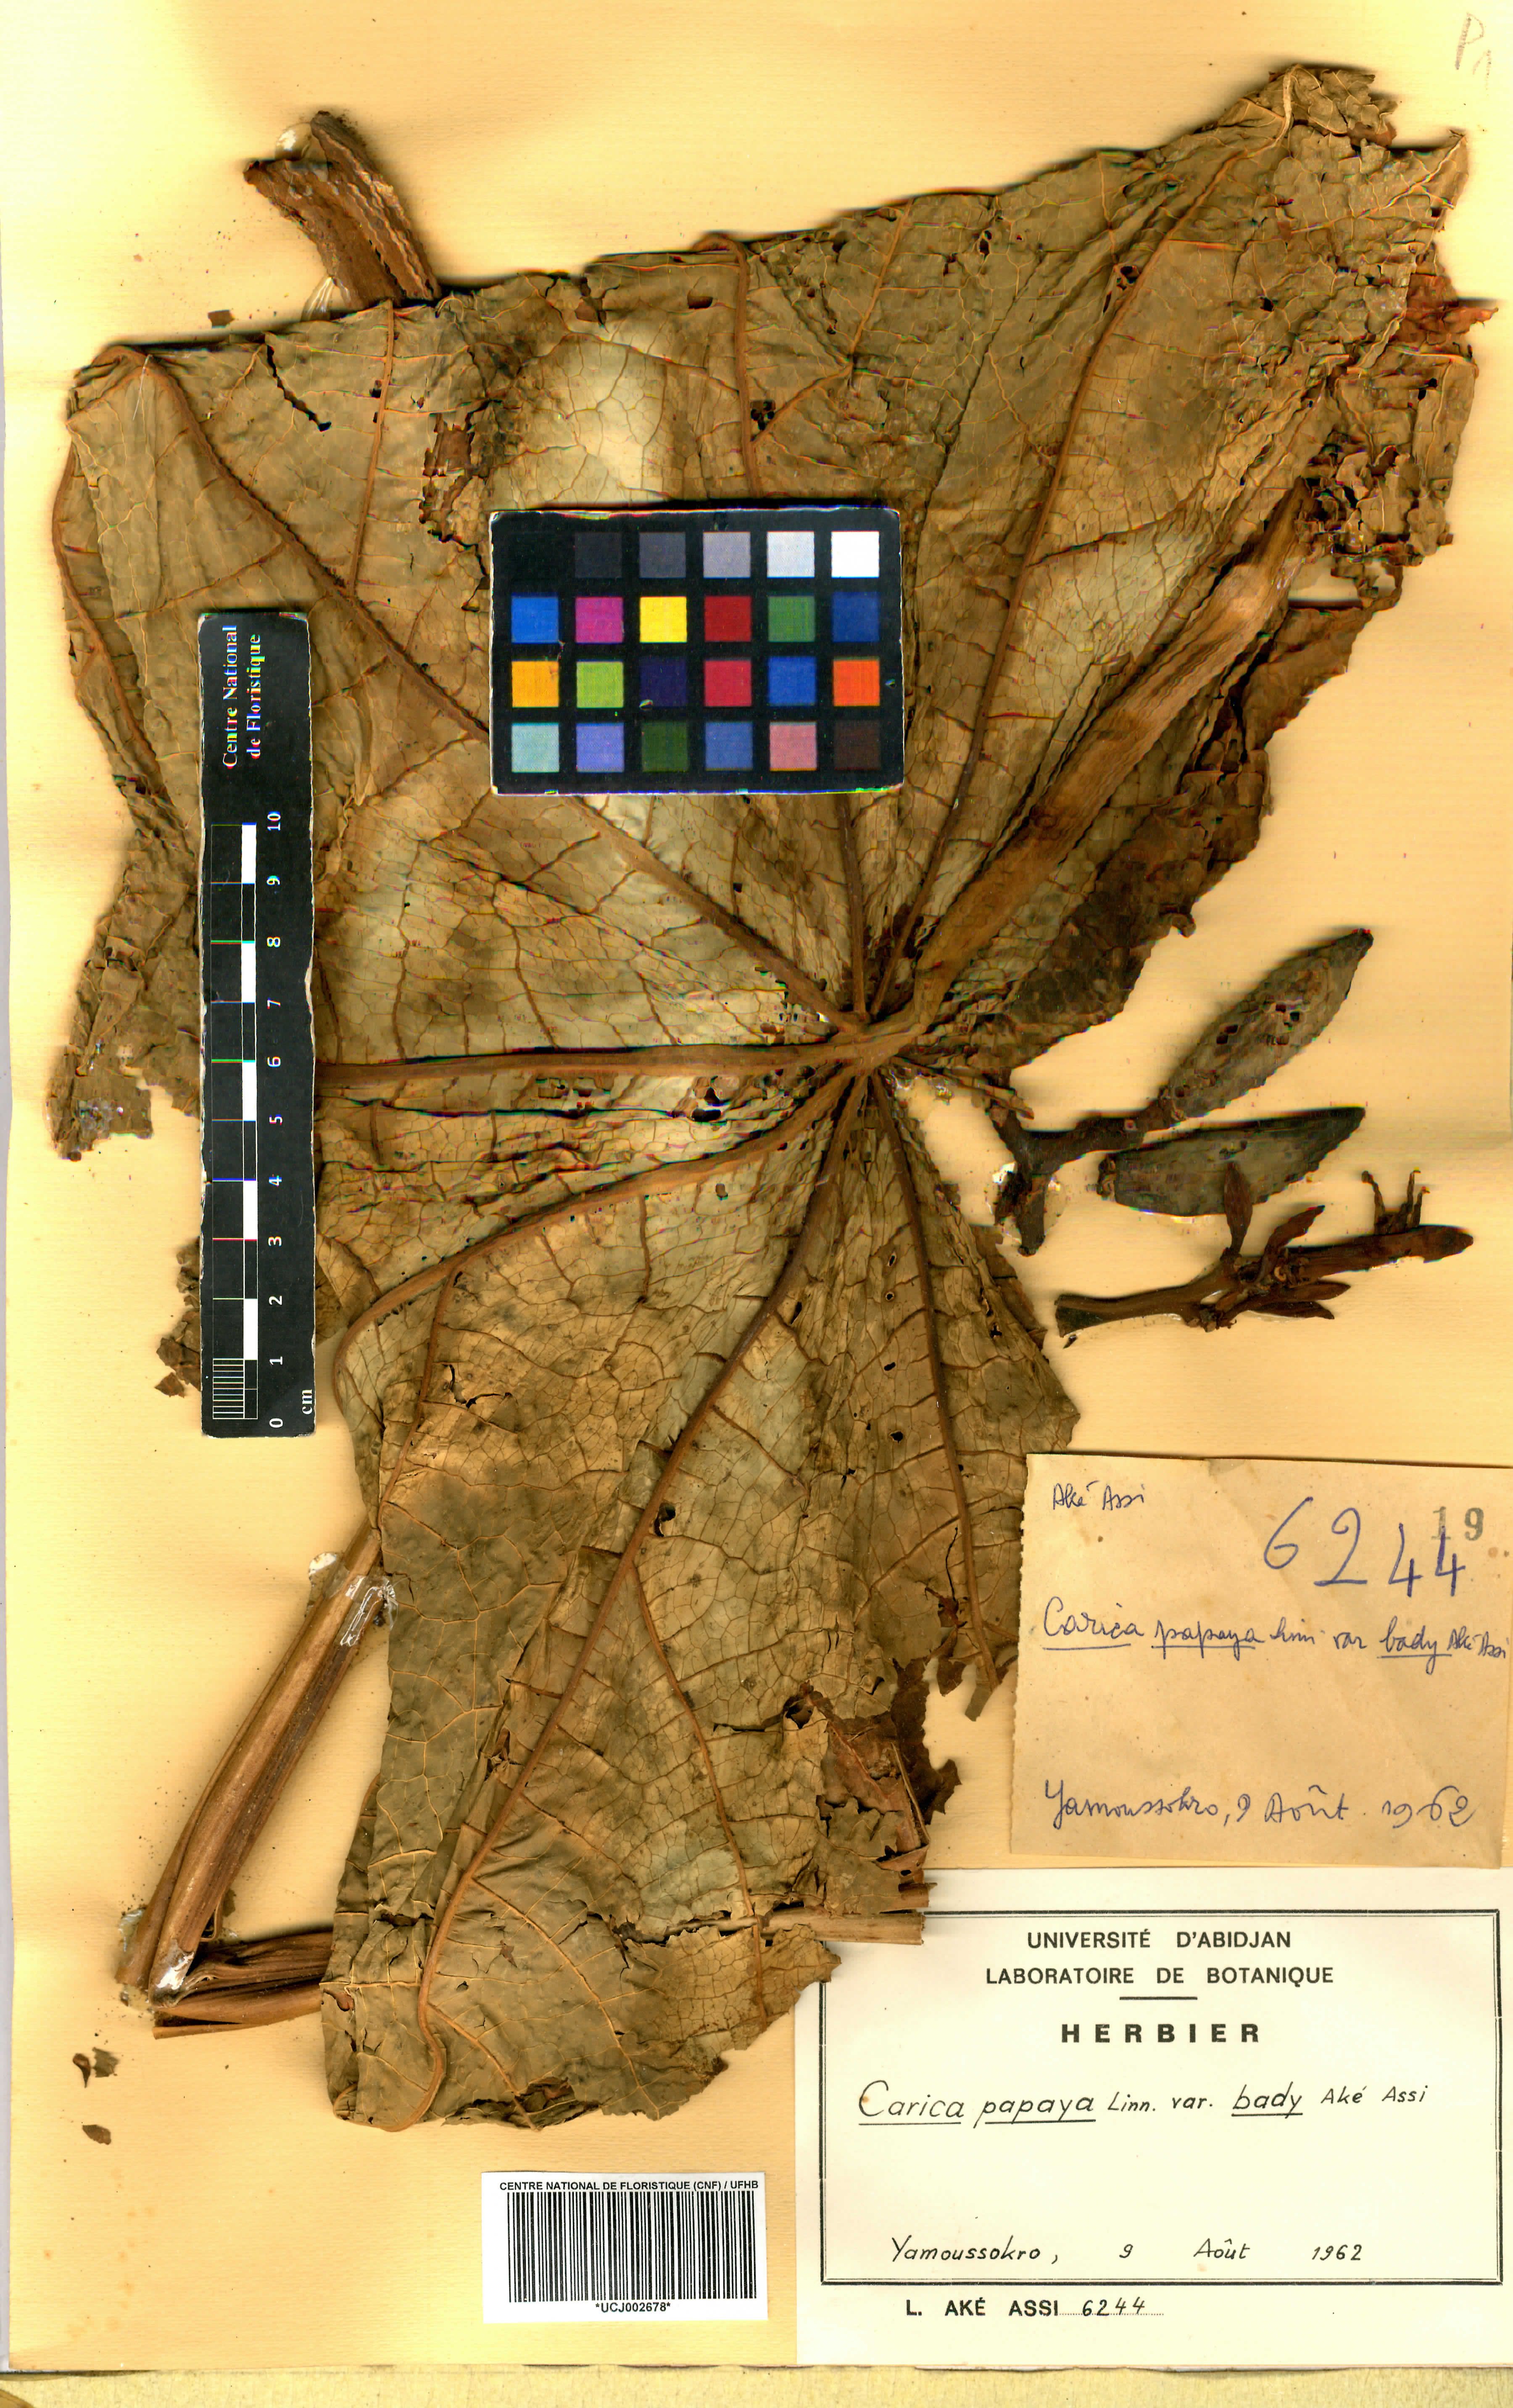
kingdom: Plantae
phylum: Tracheophyta
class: Magnoliopsida
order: Brassicales
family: Caricaceae
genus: Carica
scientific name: Carica papaya
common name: Papaya
